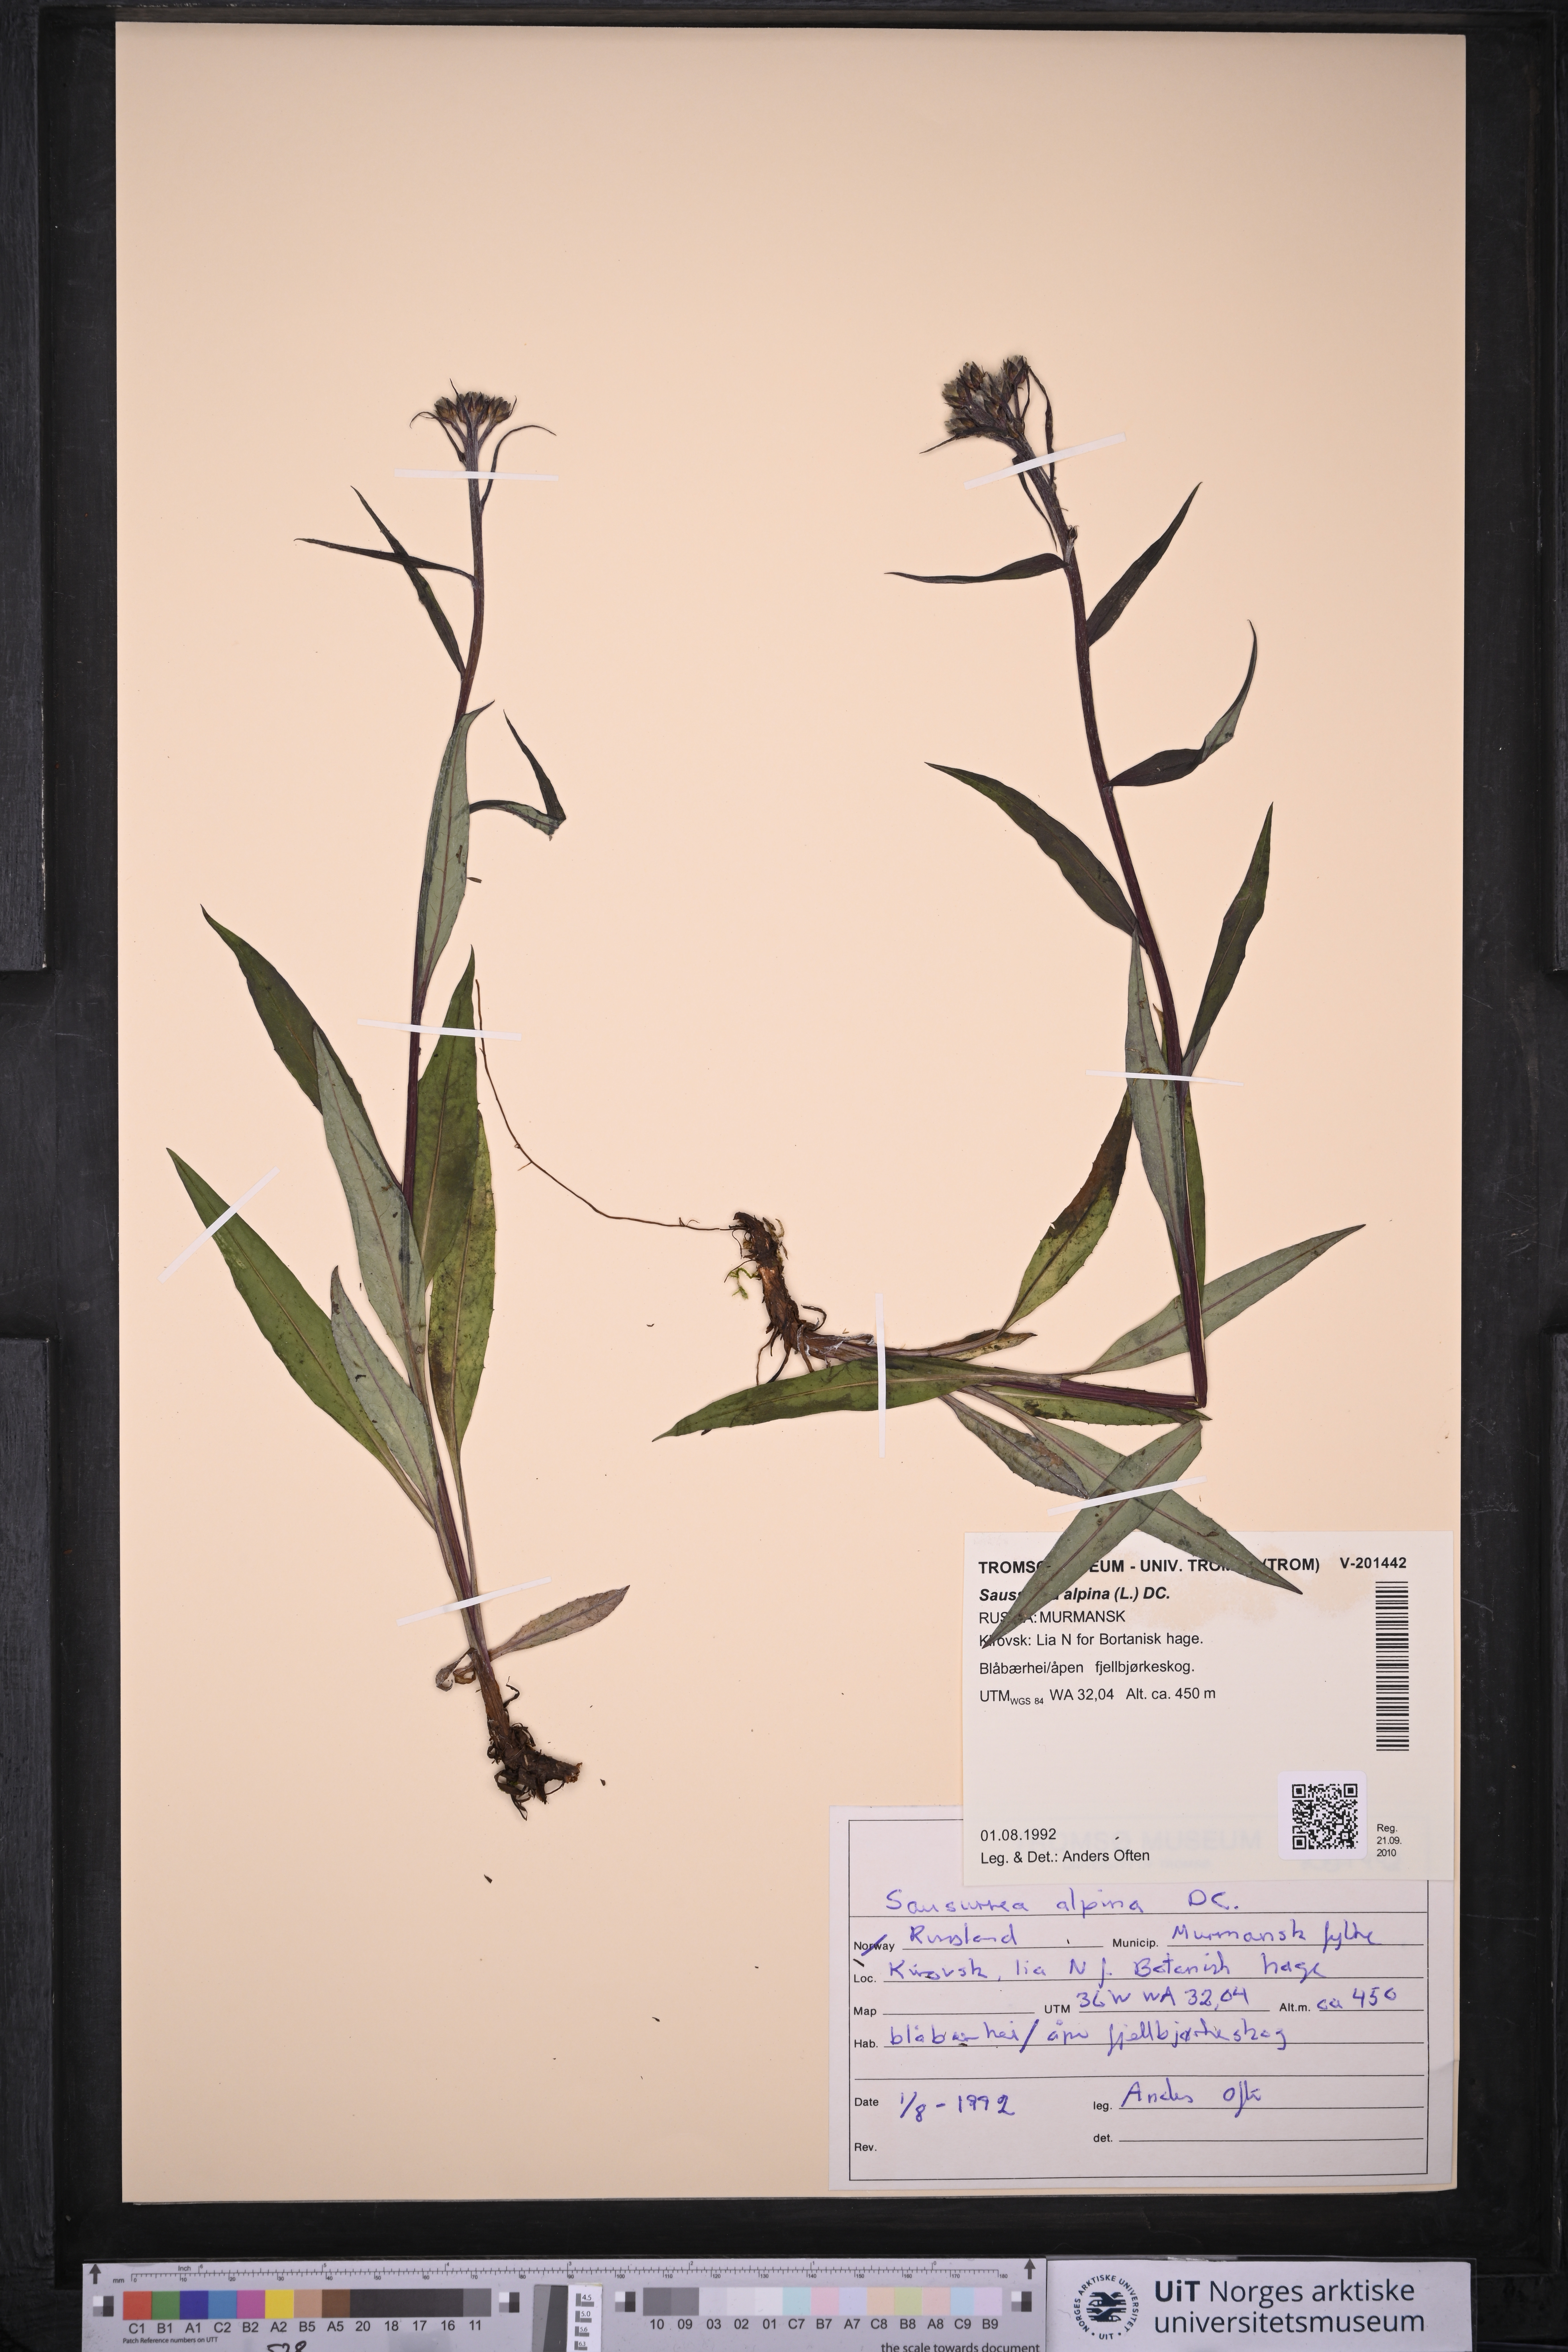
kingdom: Plantae
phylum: Tracheophyta
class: Magnoliopsida
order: Asterales
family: Asteraceae
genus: Saussurea
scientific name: Saussurea alpina
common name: Alpine saw-wort
